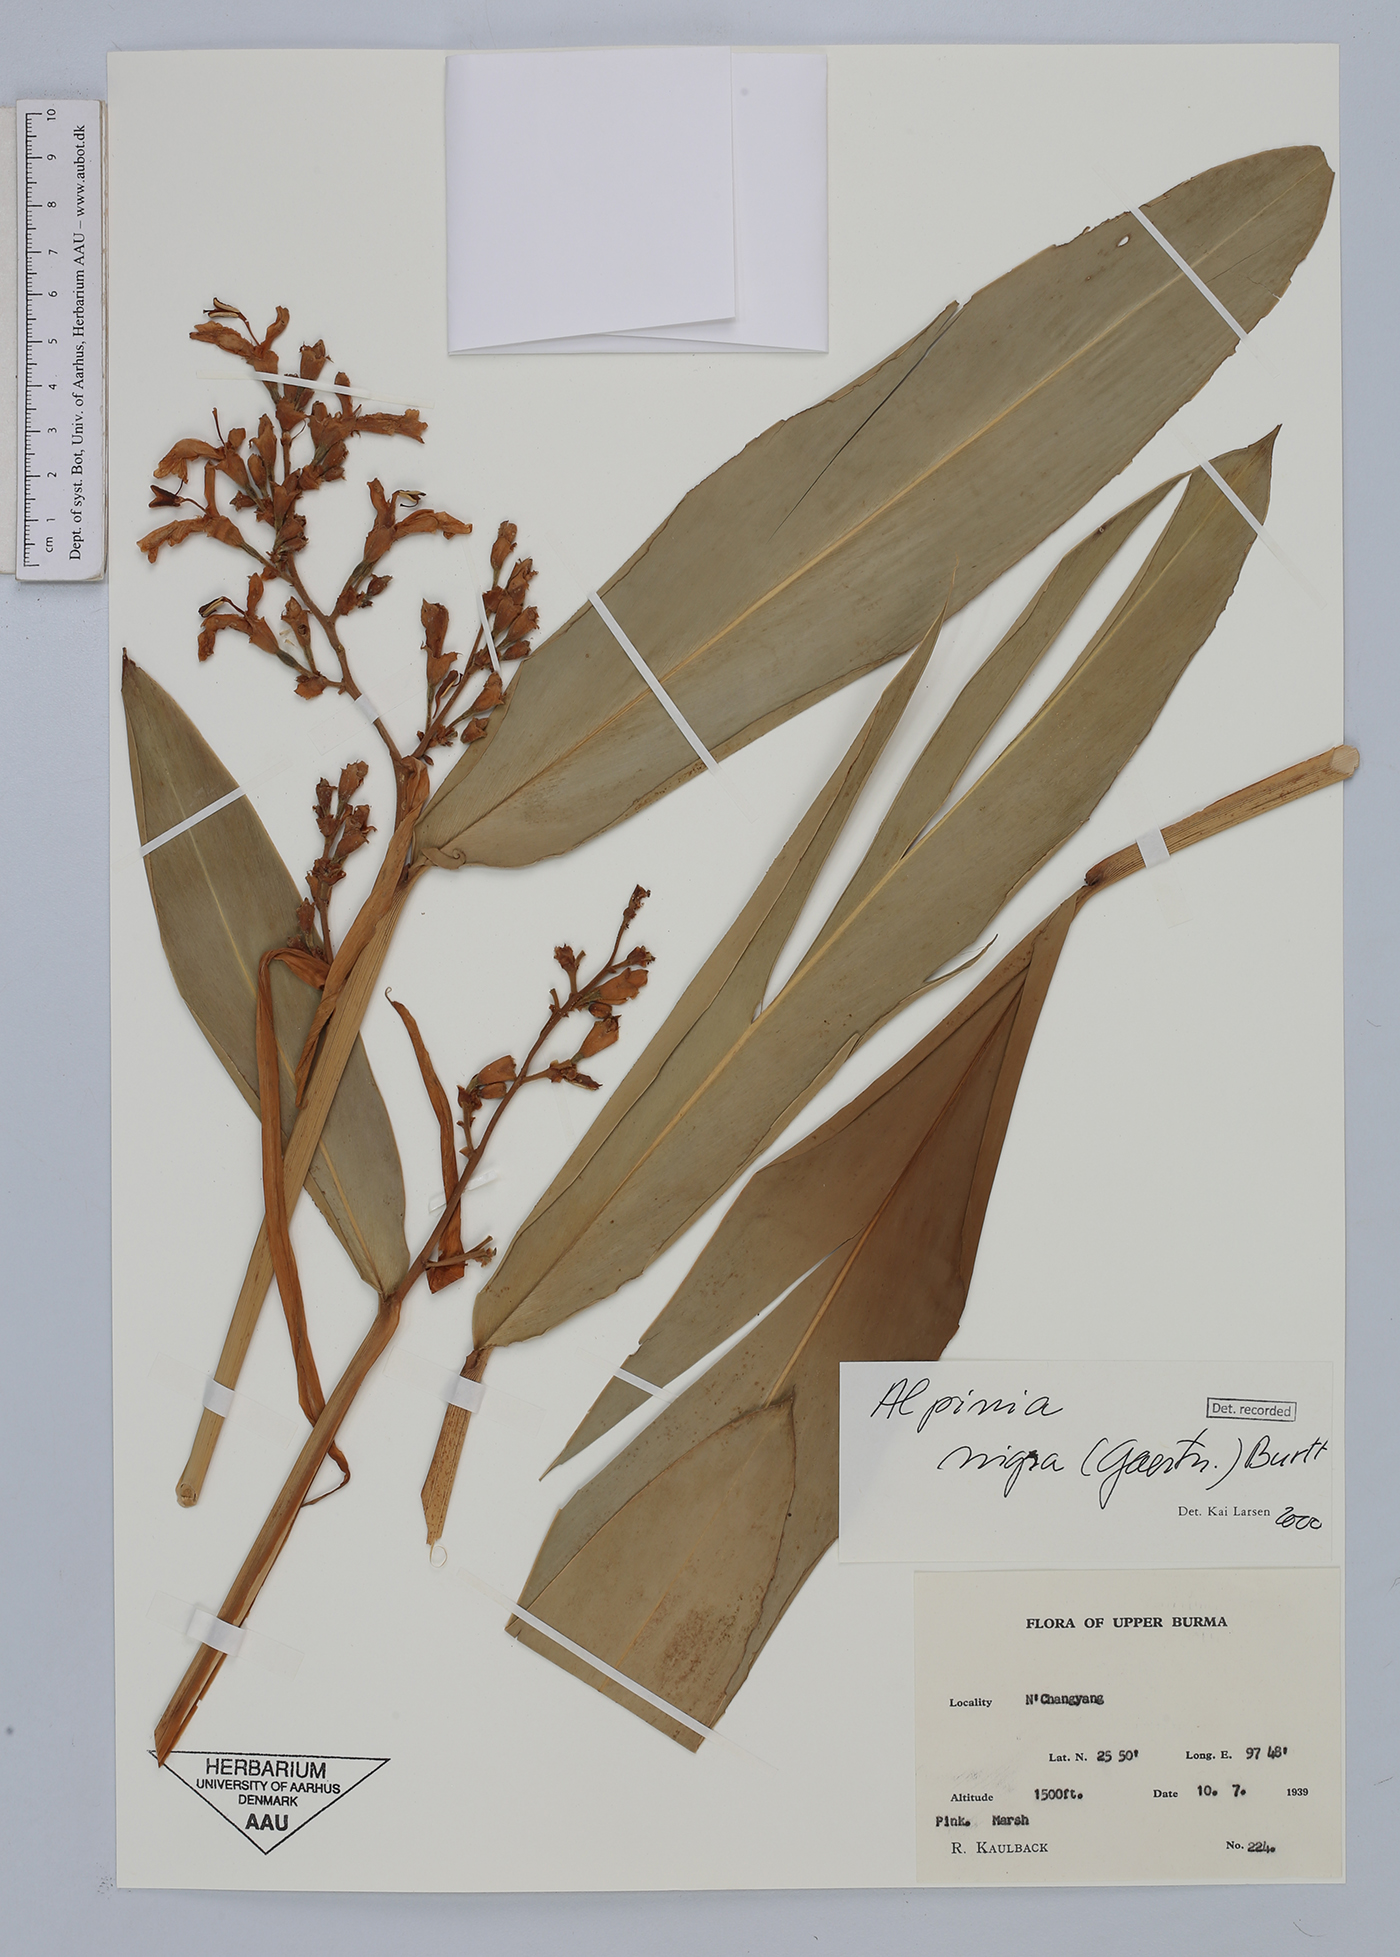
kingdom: Plantae
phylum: Tracheophyta
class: Liliopsida
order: Zingiberales
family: Zingiberaceae
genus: Alpinia
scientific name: Alpinia nigra
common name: Black fruited galanga
